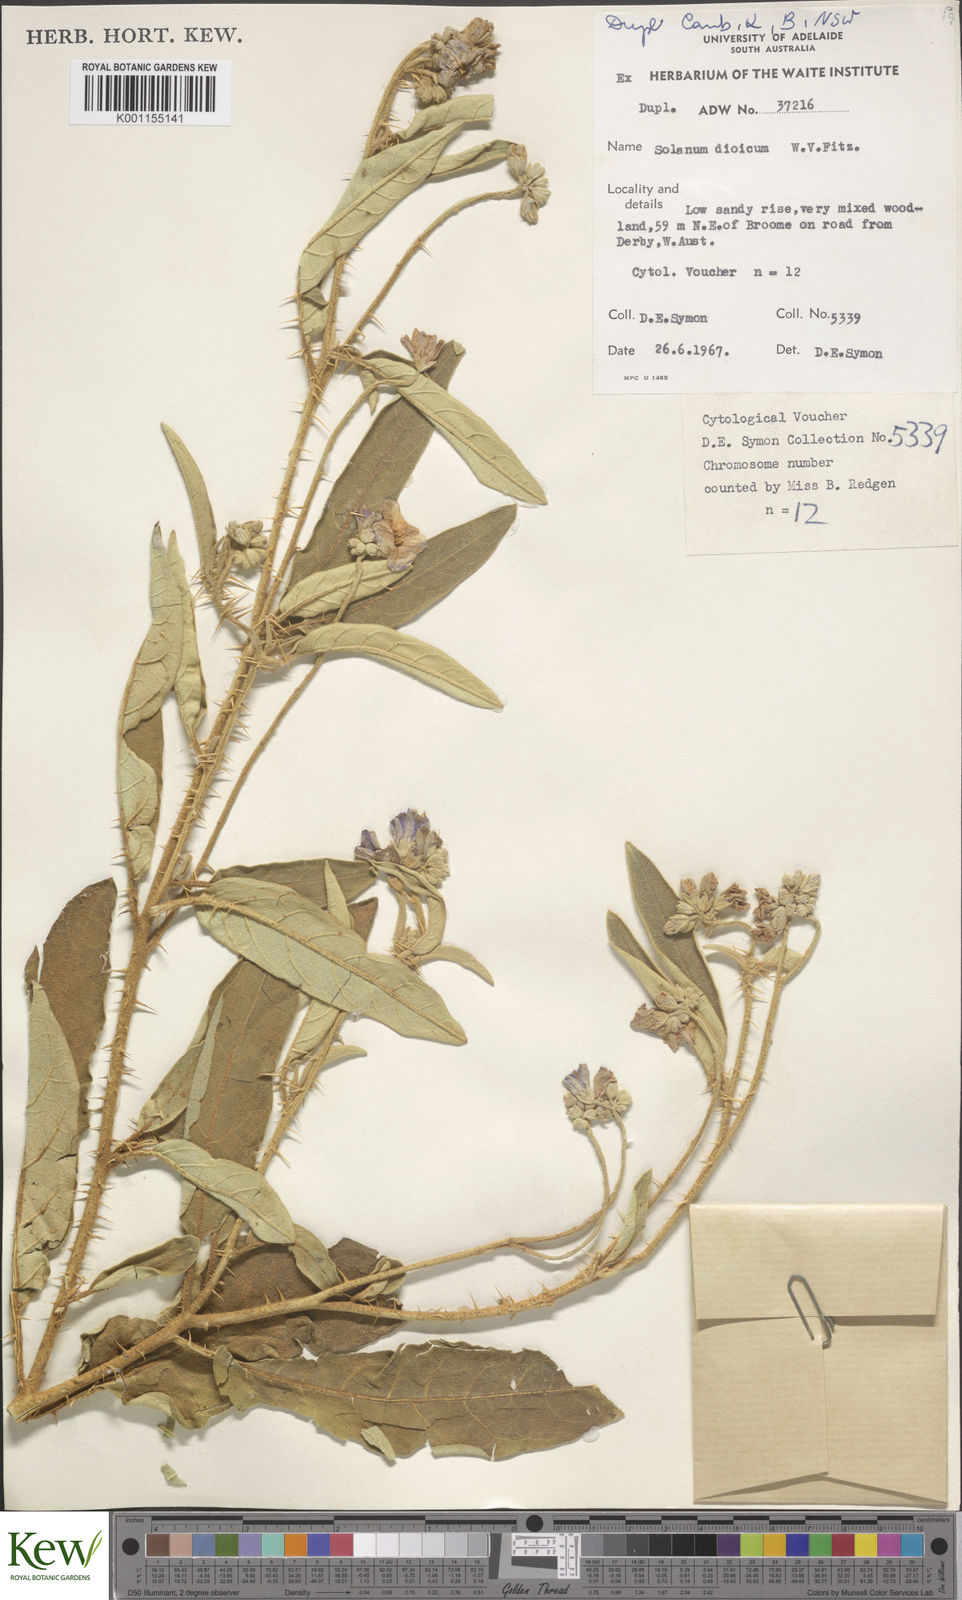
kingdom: Plantae
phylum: Tracheophyta
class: Magnoliopsida
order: Solanales
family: Solanaceae
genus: Solanum
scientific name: Solanum dioicum
